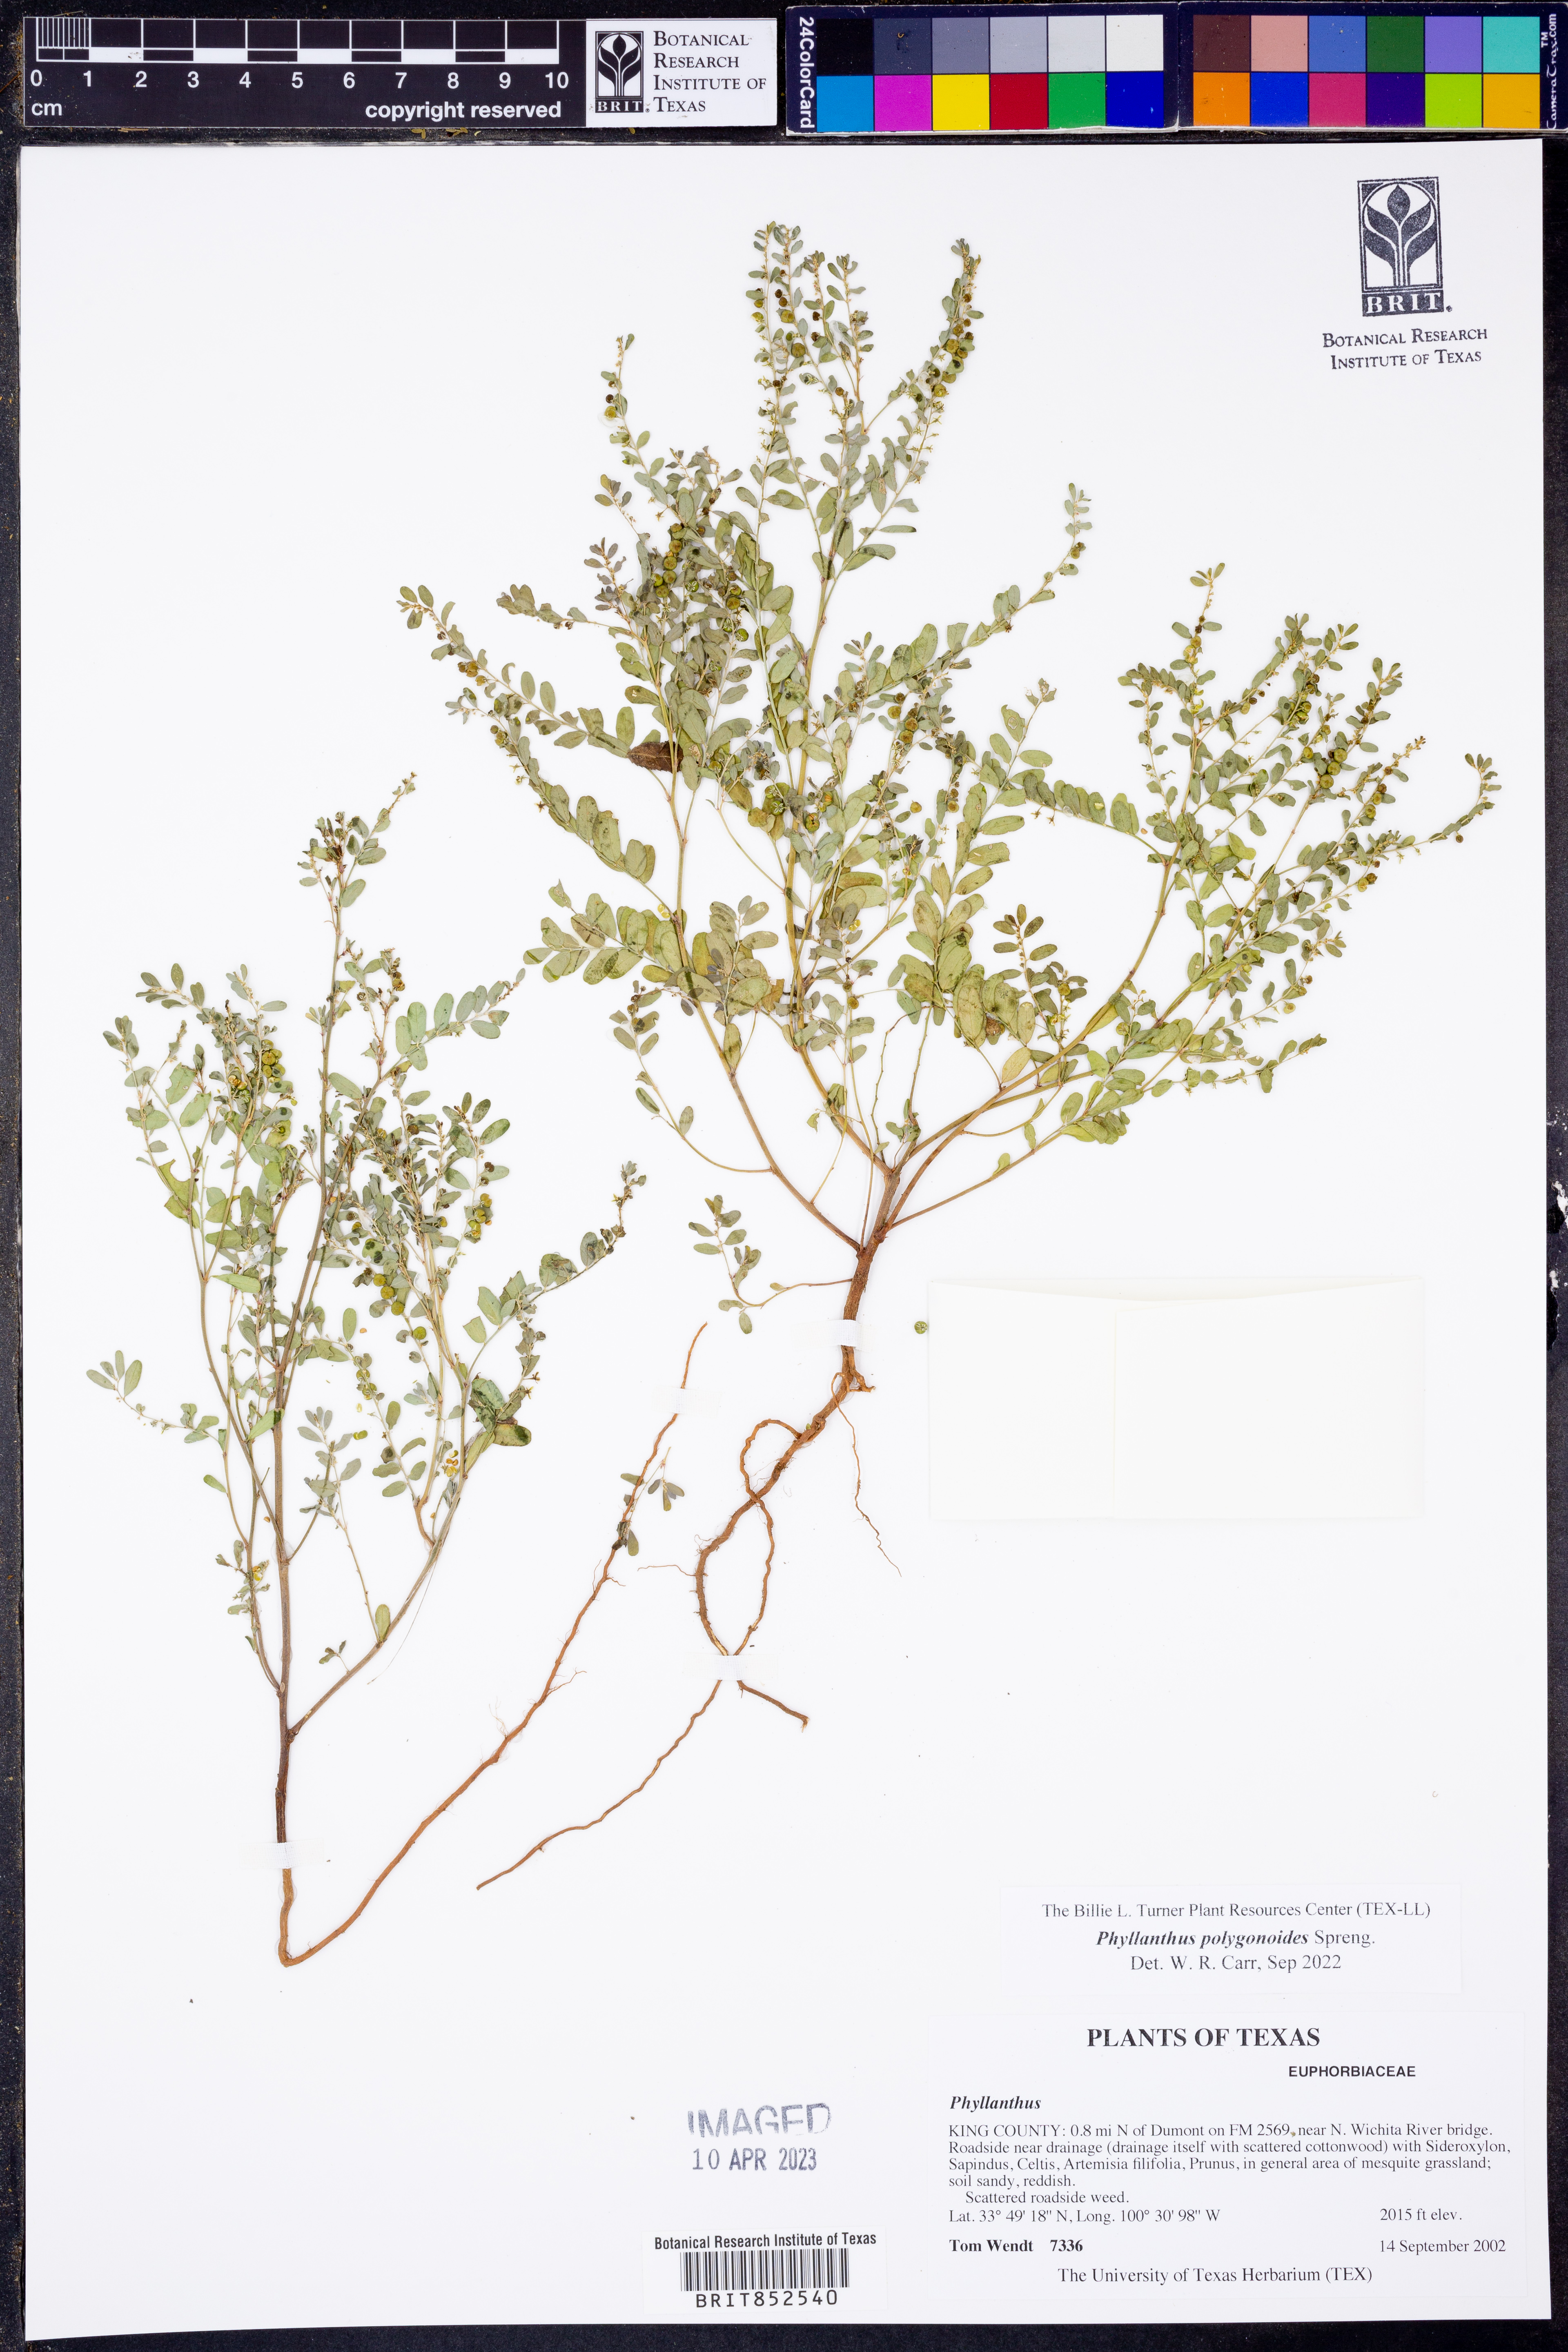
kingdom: Plantae
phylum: Tracheophyta
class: Magnoliopsida
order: Malpighiales
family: Phyllanthaceae
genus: Phyllanthus
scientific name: Phyllanthus polygonoides
